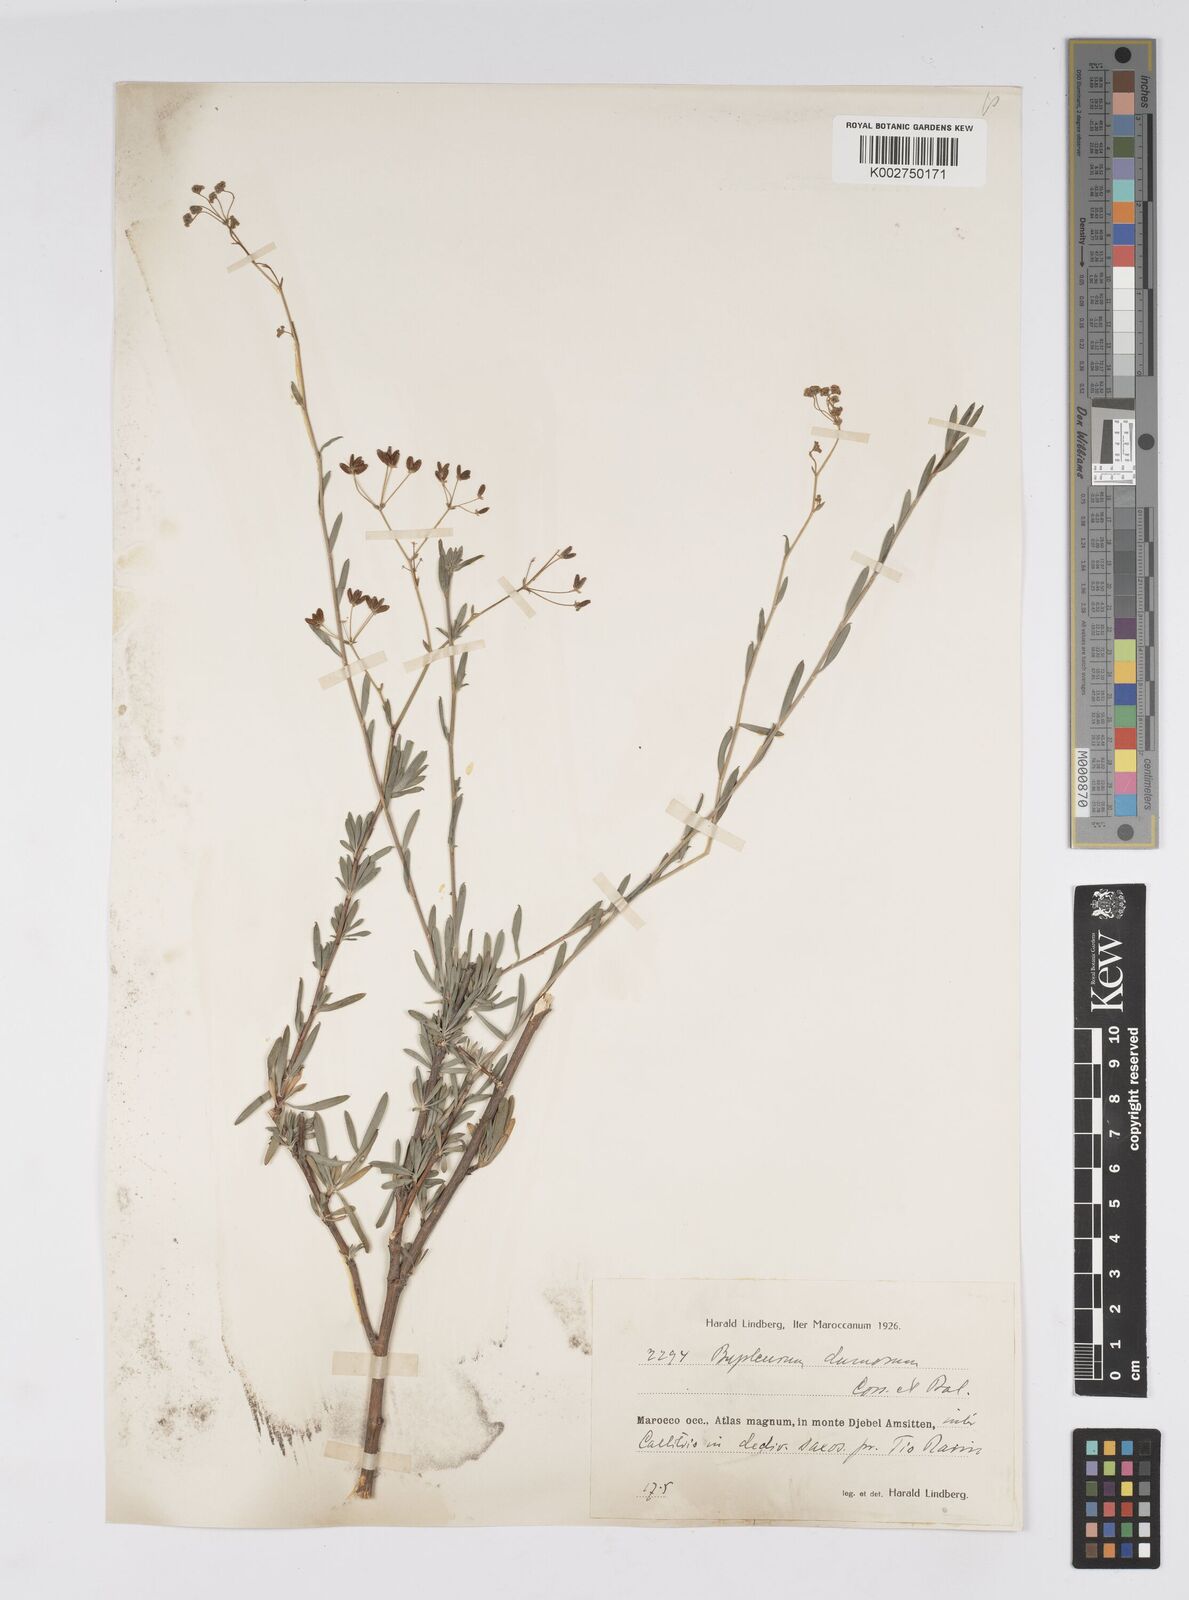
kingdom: Plantae
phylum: Tracheophyta
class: Magnoliopsida
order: Apiales
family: Apiaceae
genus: Bupleurum
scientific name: Bupleurum dumosum
